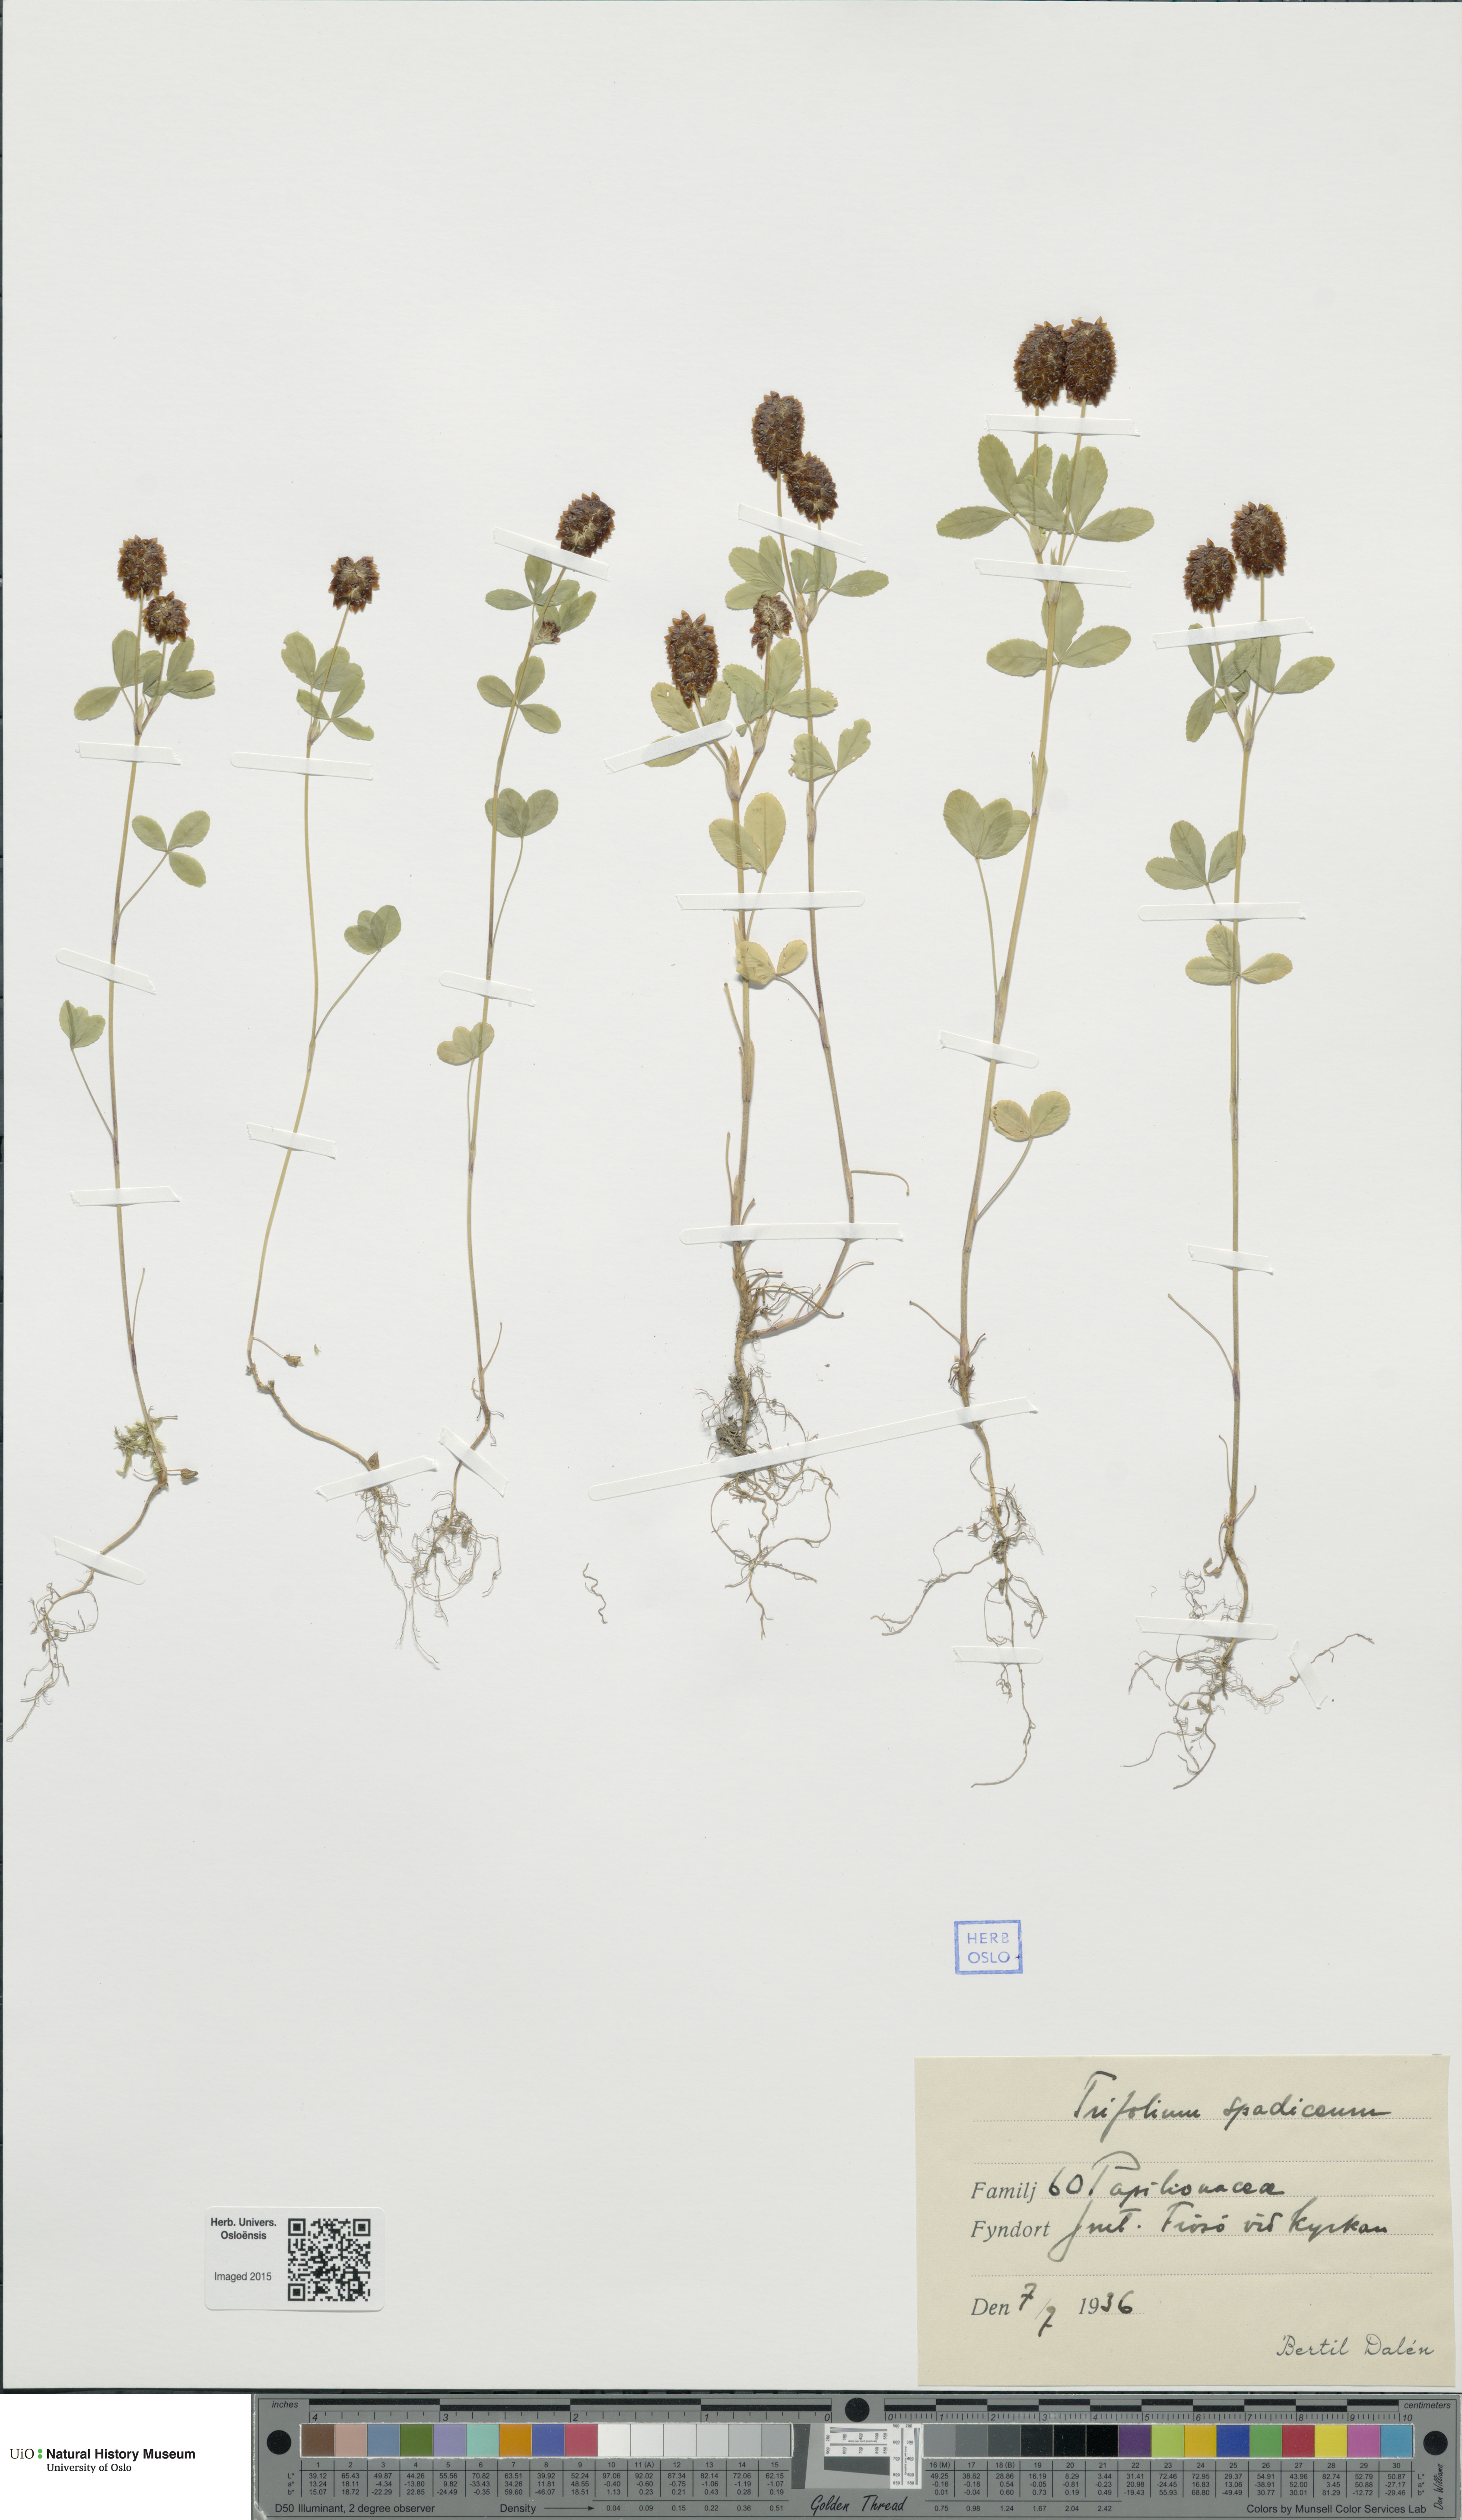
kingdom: Plantae
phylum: Tracheophyta
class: Magnoliopsida
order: Fabales
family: Fabaceae
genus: Trifolium
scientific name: Trifolium spadiceum
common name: Brown moor clover
